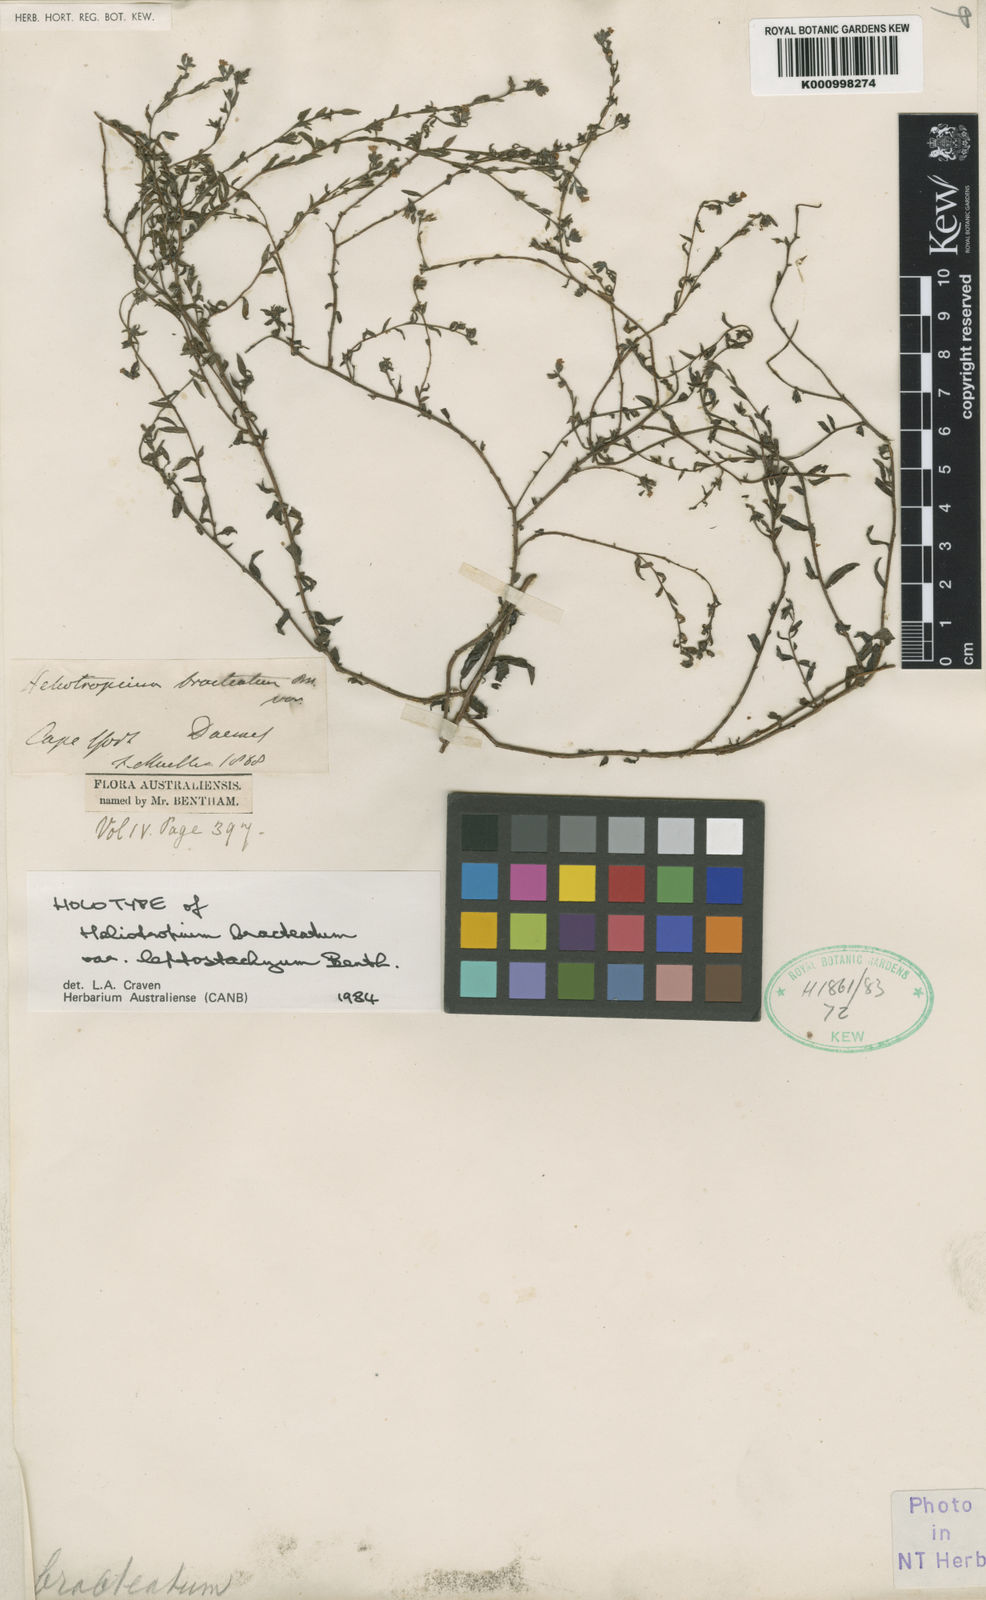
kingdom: Plantae
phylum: Tracheophyta
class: Magnoliopsida
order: Boraginales
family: Heliotropiaceae
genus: Euploca
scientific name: Euploca bracteata
